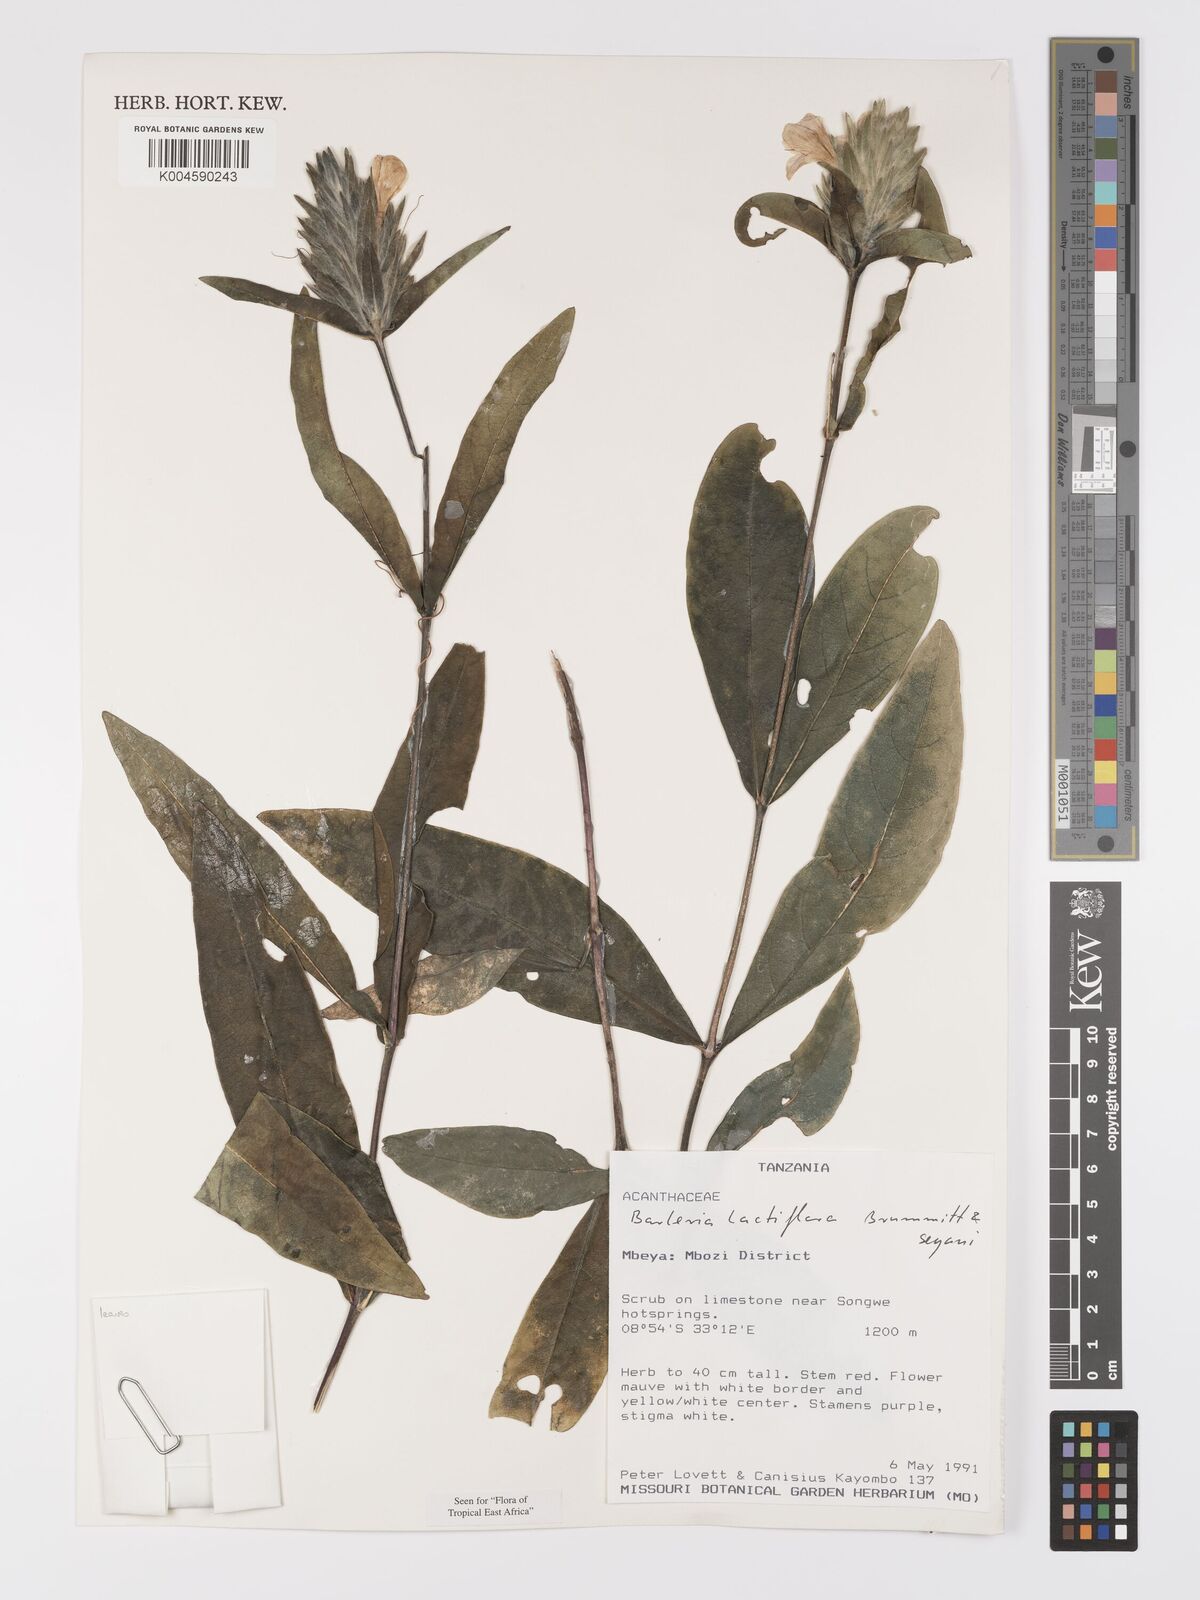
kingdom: Plantae
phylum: Tracheophyta
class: Magnoliopsida
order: Lamiales
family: Acanthaceae
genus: Barleria
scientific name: Barleria lactiflora
